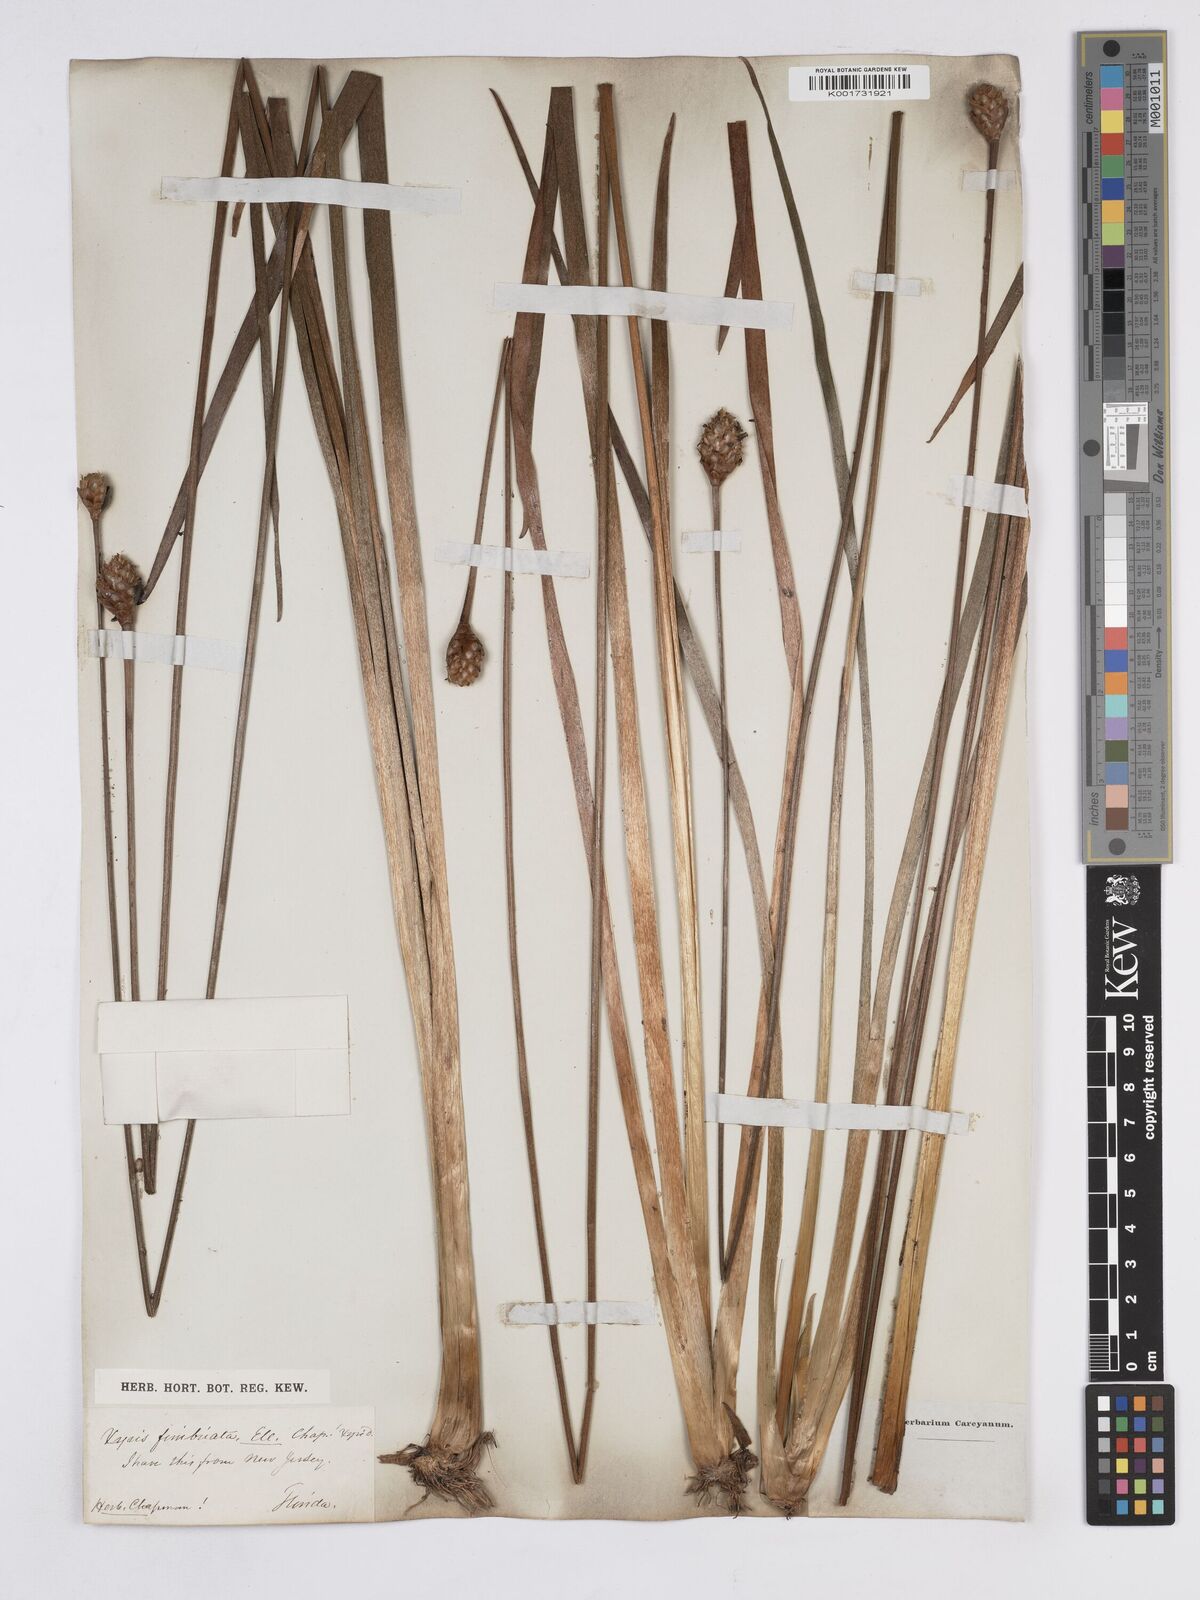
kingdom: Plantae
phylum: Tracheophyta
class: Liliopsida
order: Poales
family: Xyridaceae
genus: Xyris
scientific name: Xyris fimbriata
